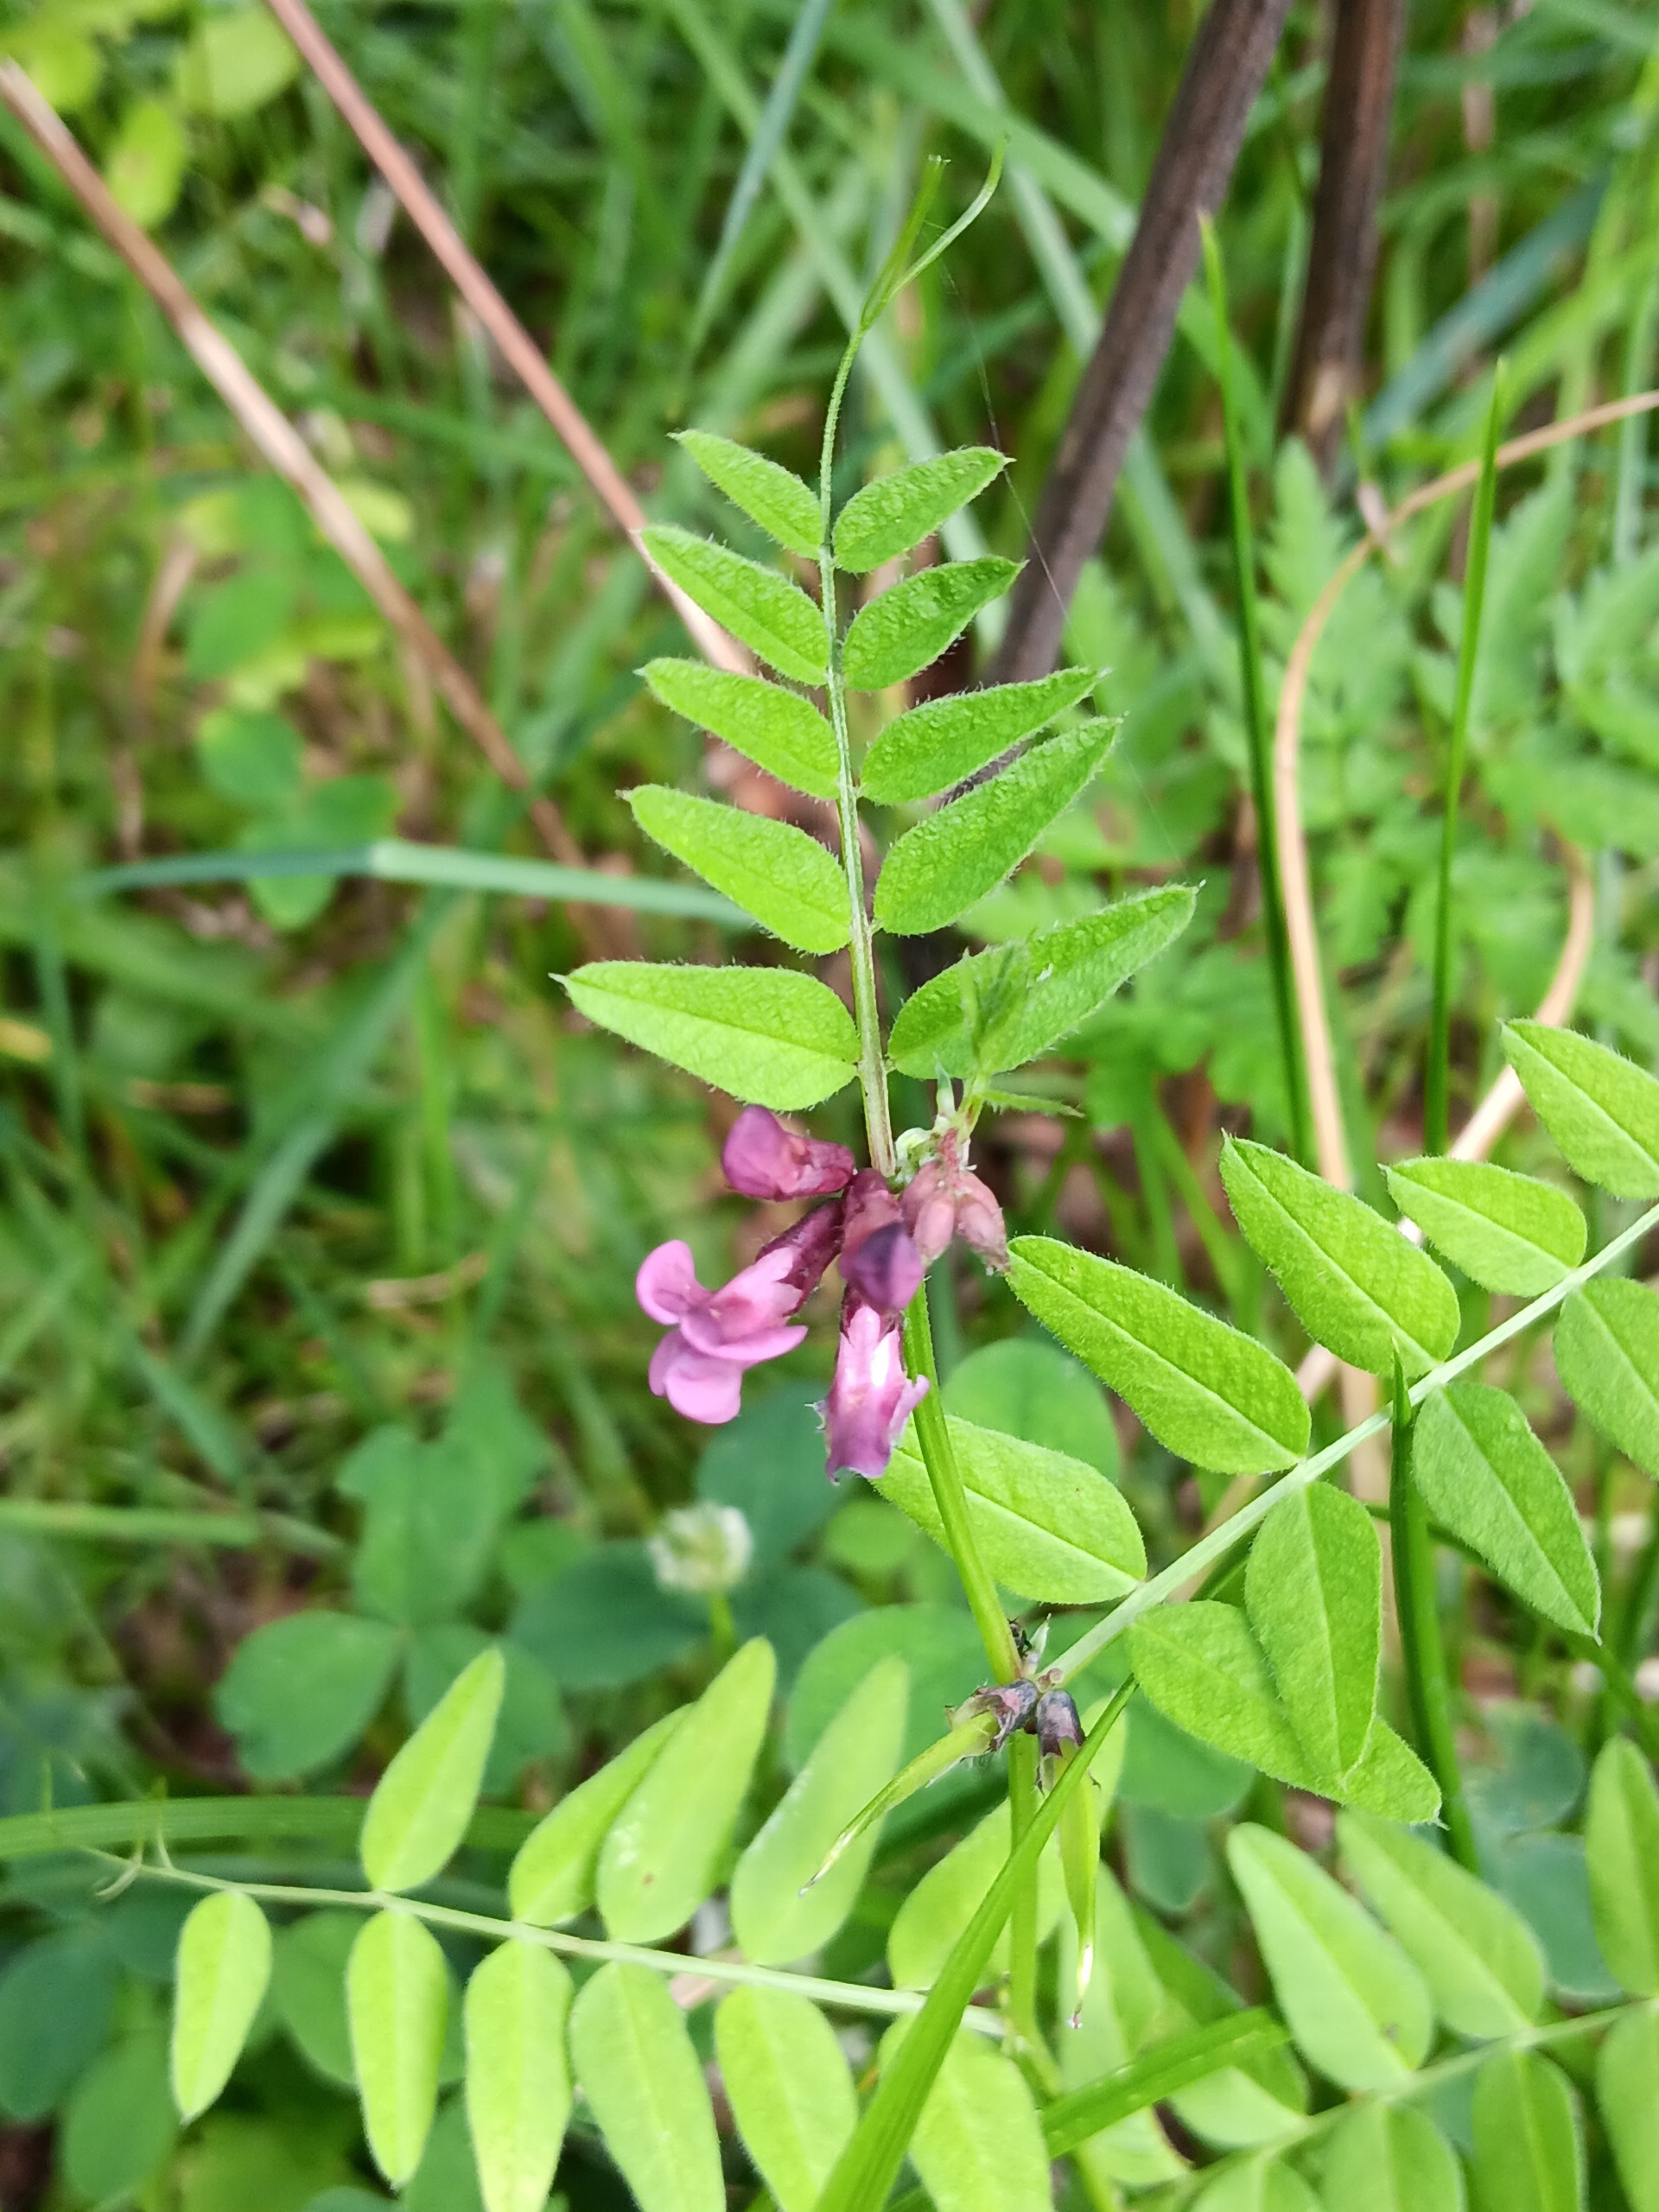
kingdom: Plantae
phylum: Tracheophyta
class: Magnoliopsida
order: Fabales
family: Fabaceae
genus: Vicia
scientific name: Vicia sepium
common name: Gærde-vikke
